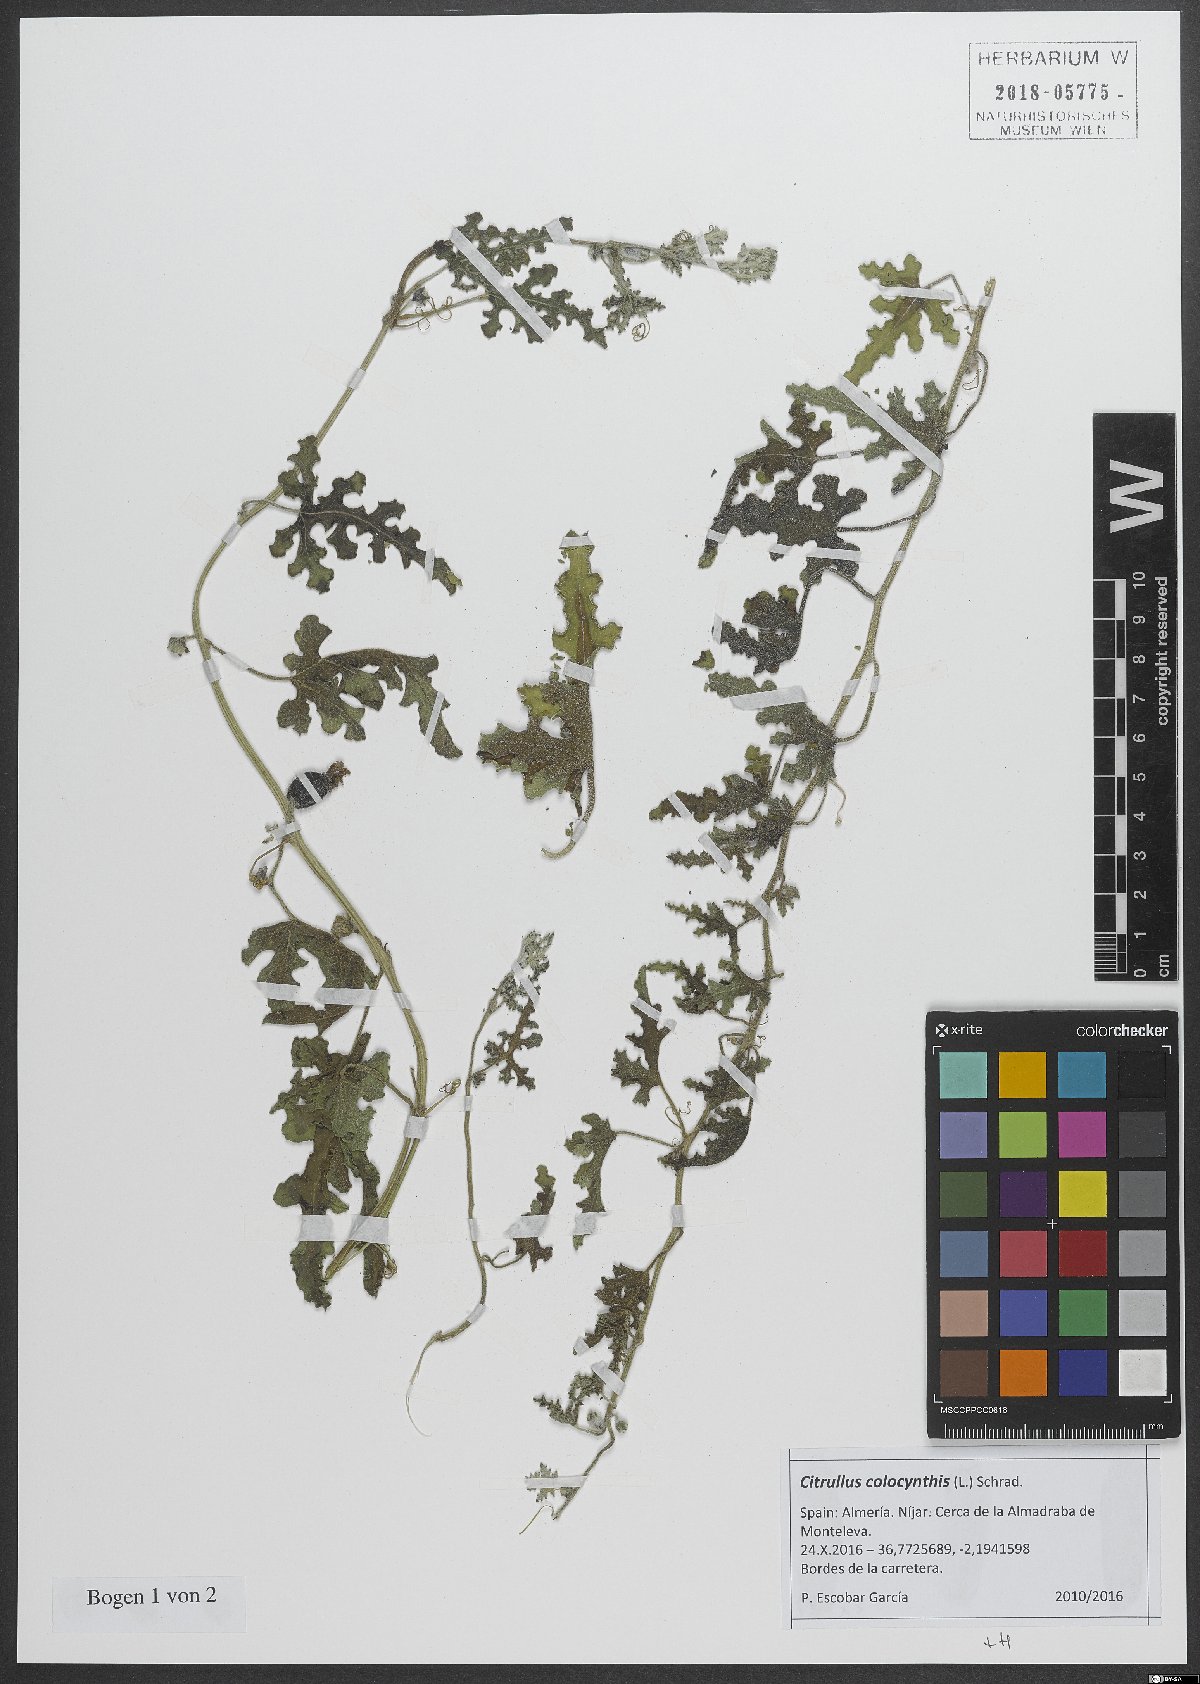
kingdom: Plantae
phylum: Tracheophyta
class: Magnoliopsida
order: Cucurbitales
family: Cucurbitaceae
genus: Citrullus
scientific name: Citrullus colocynthis
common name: Colocynth
